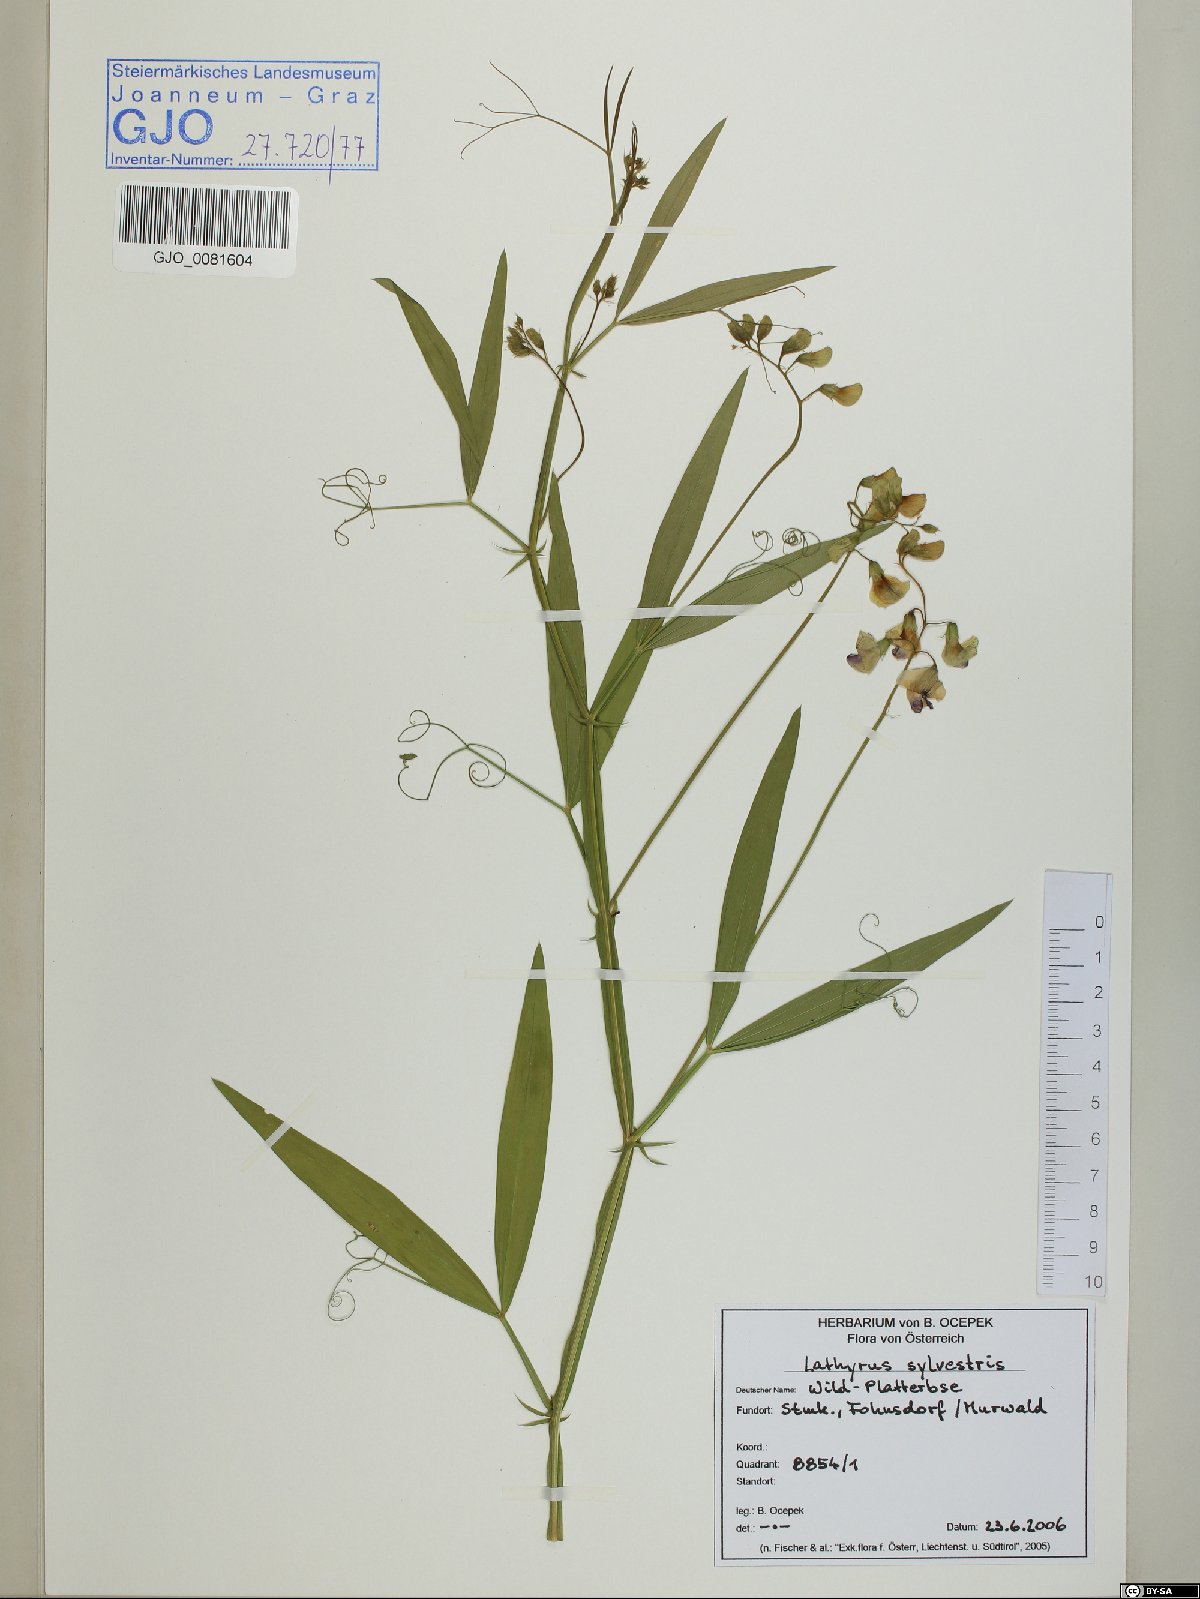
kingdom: Plantae
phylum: Tracheophyta
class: Magnoliopsida
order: Fabales
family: Fabaceae
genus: Lathyrus
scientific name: Lathyrus sylvestris
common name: Flat pea
